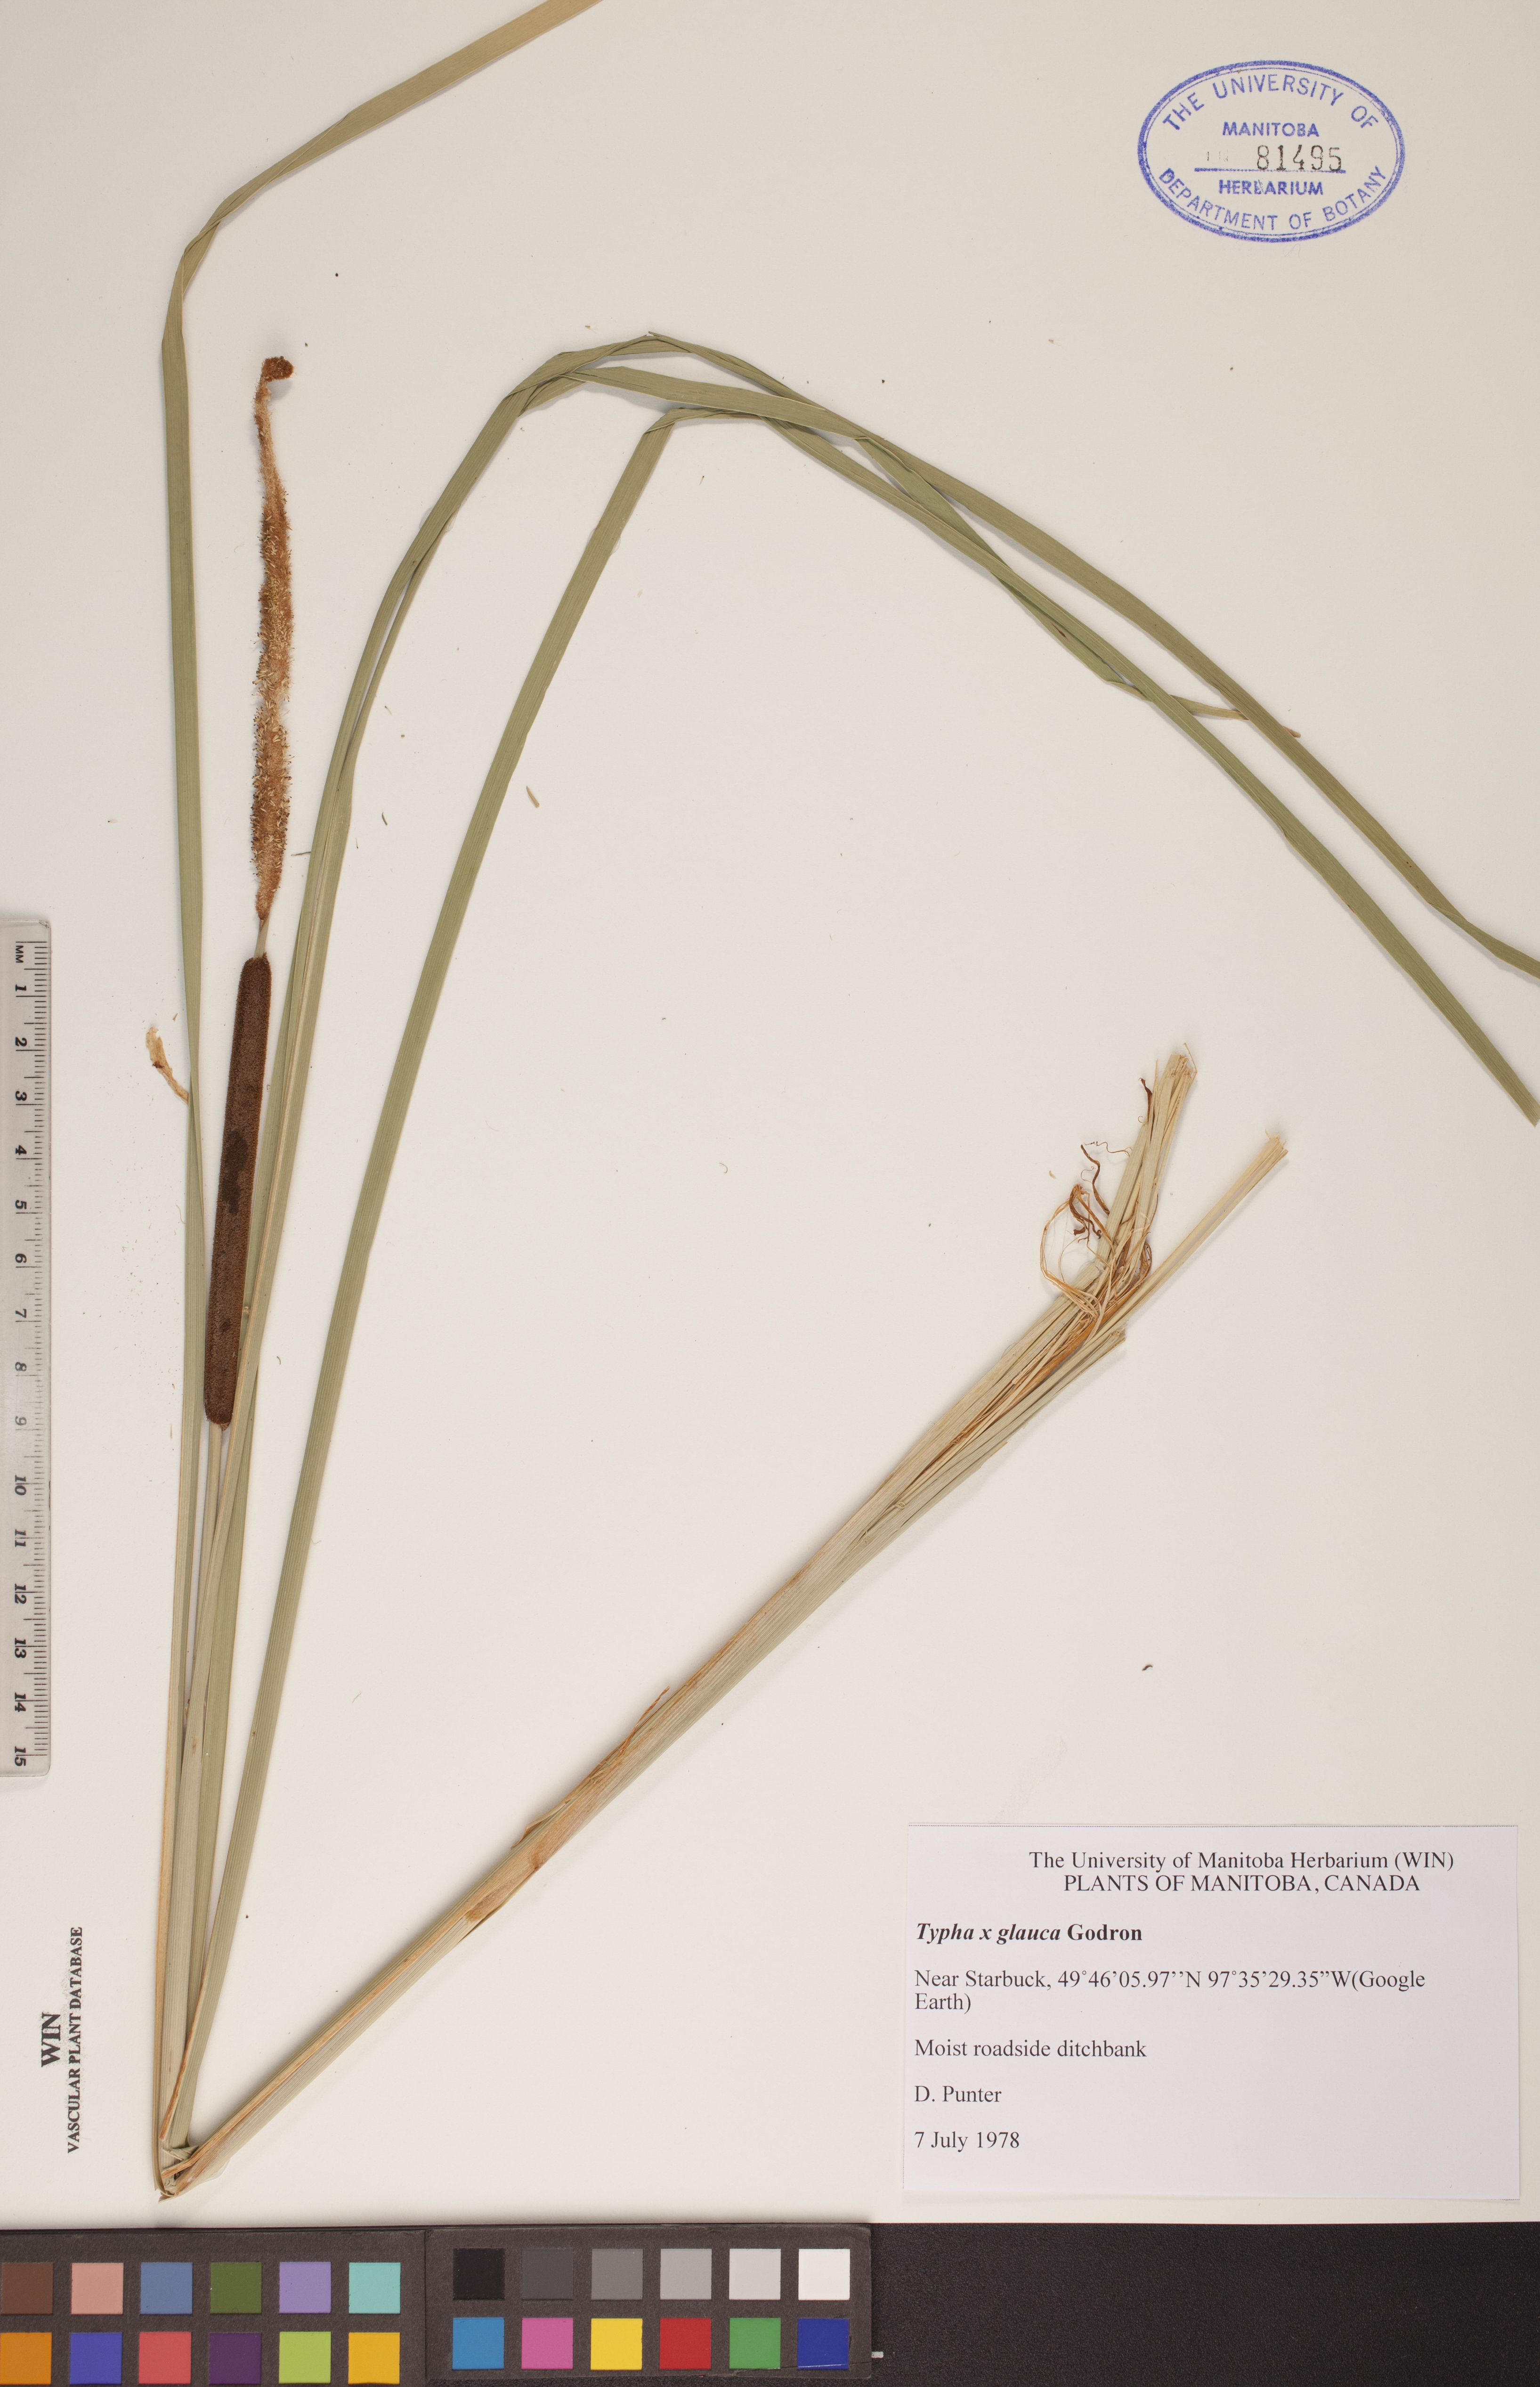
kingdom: Plantae
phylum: Tracheophyta
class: Liliopsida
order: Poales
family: Typhaceae
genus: Typha
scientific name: Typha glauca
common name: Blue cattail
